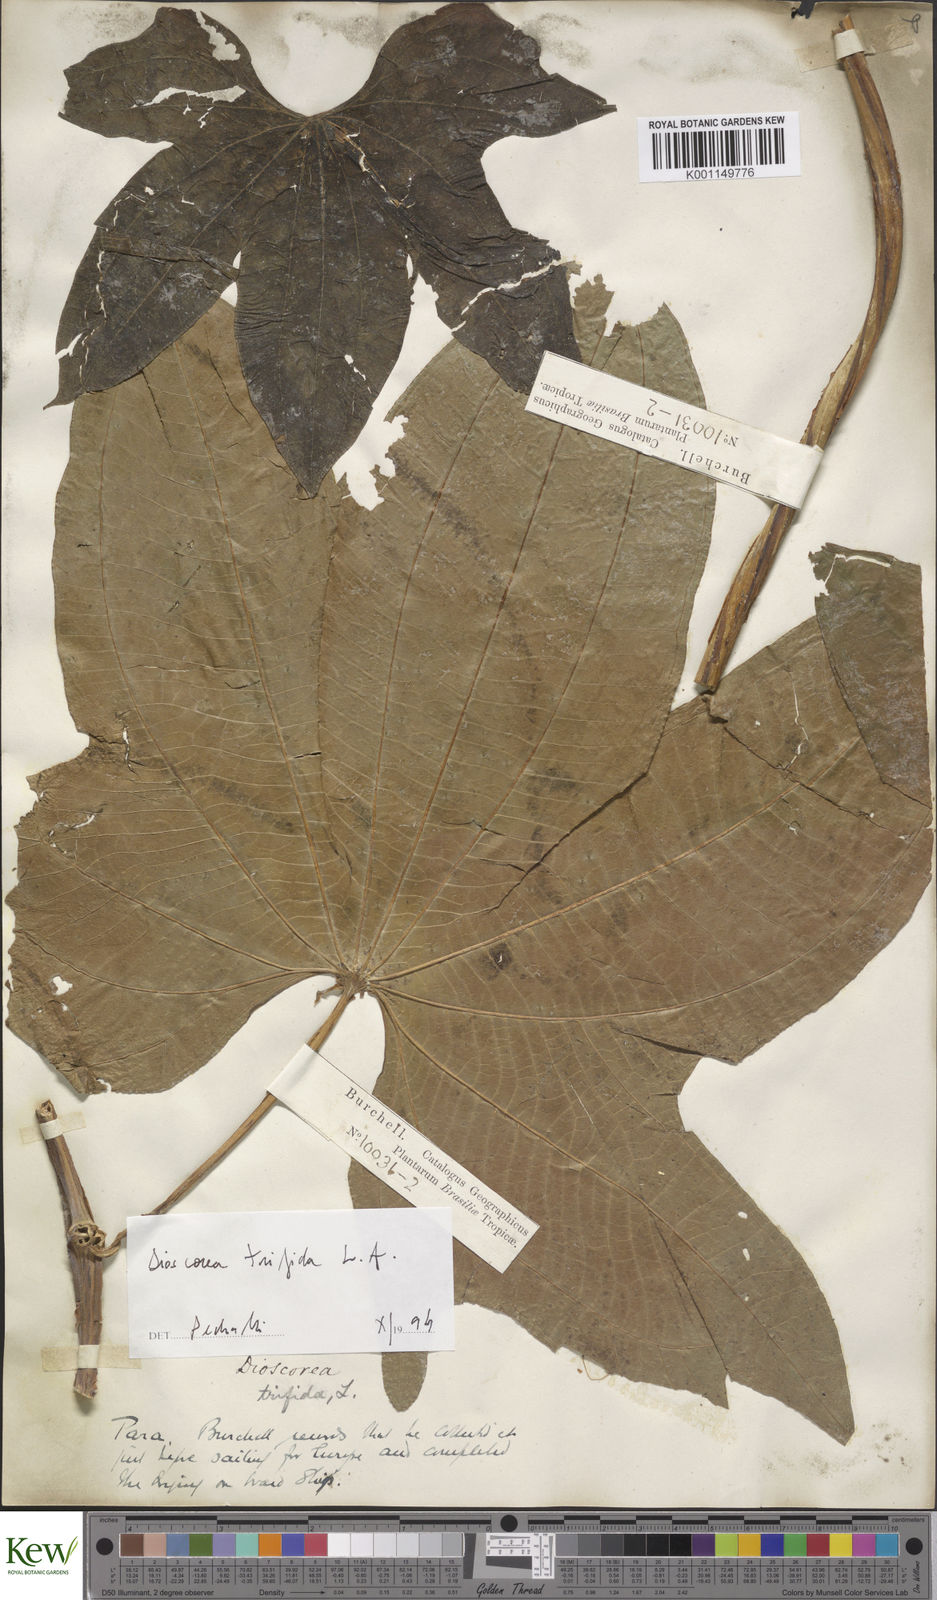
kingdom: Plantae
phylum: Tracheophyta
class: Liliopsida
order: Dioscoreales
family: Dioscoreaceae
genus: Dioscorea
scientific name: Dioscorea trifida
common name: Cush-cush
